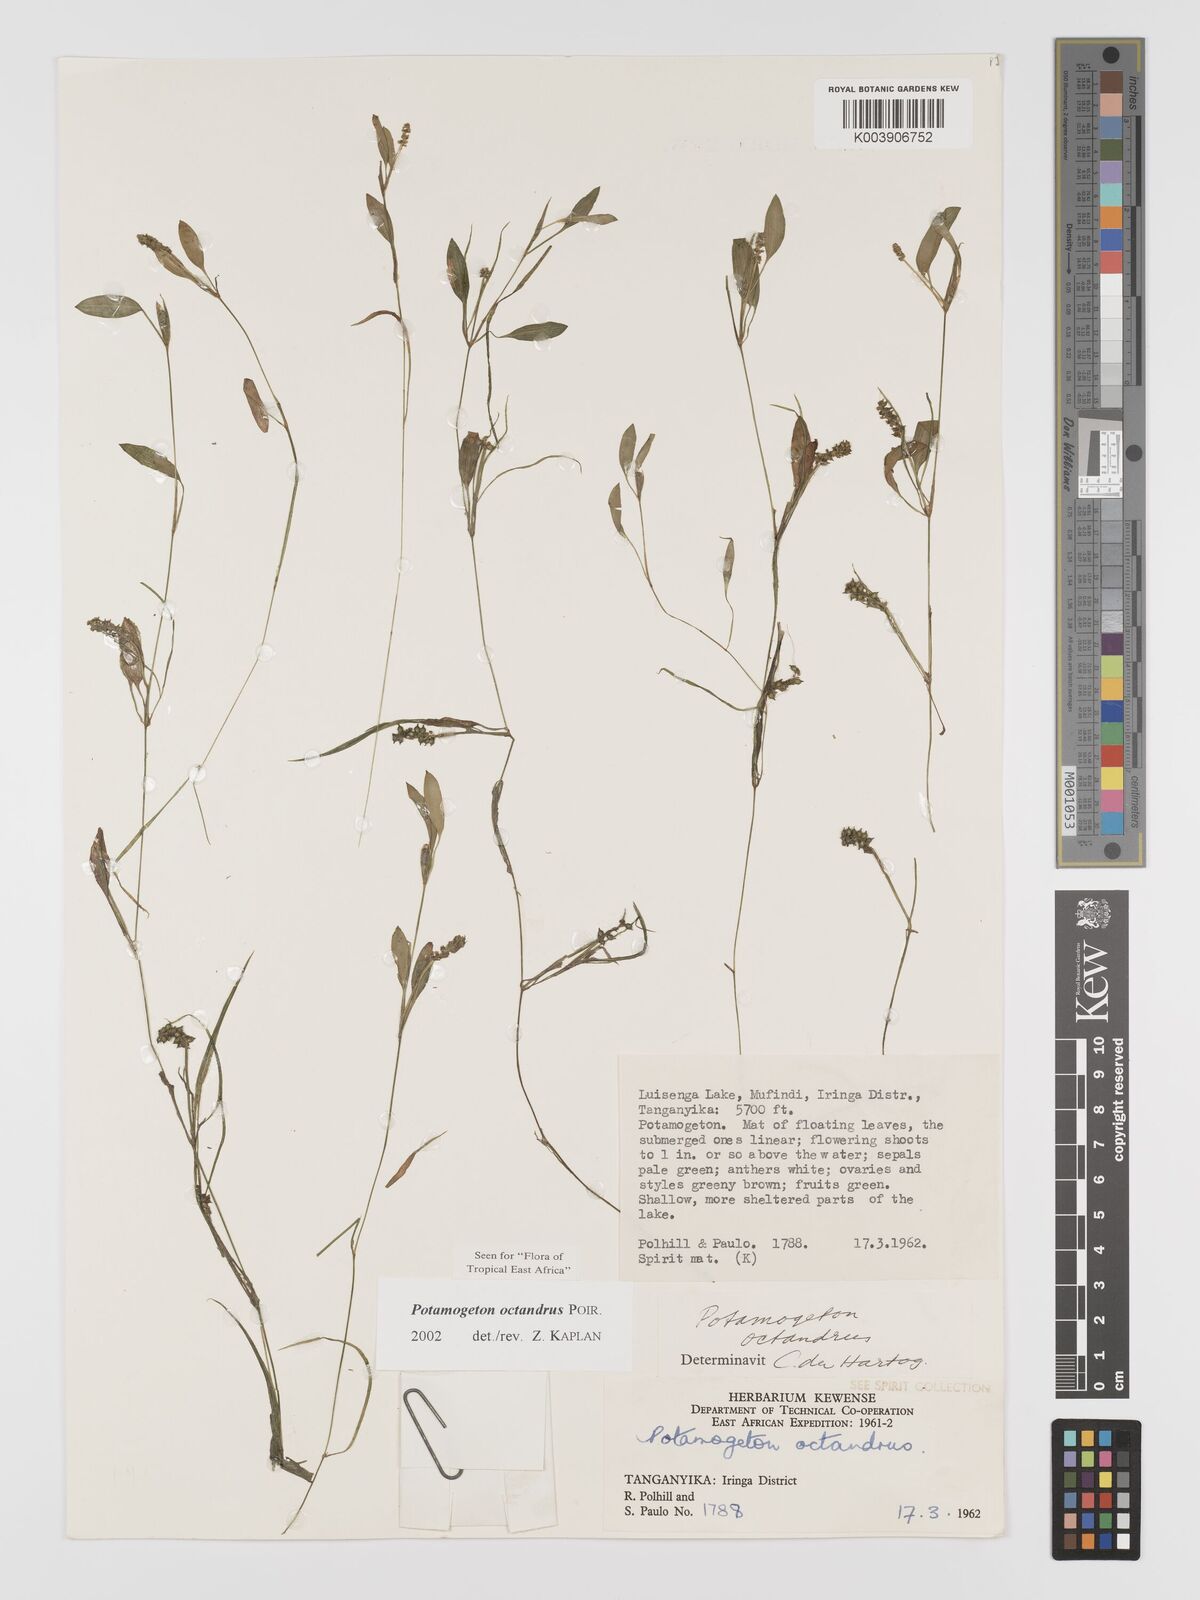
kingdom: Plantae
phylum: Tracheophyta
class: Liliopsida
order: Alismatales
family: Potamogetonaceae
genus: Potamogeton
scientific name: Potamogeton octandrus
